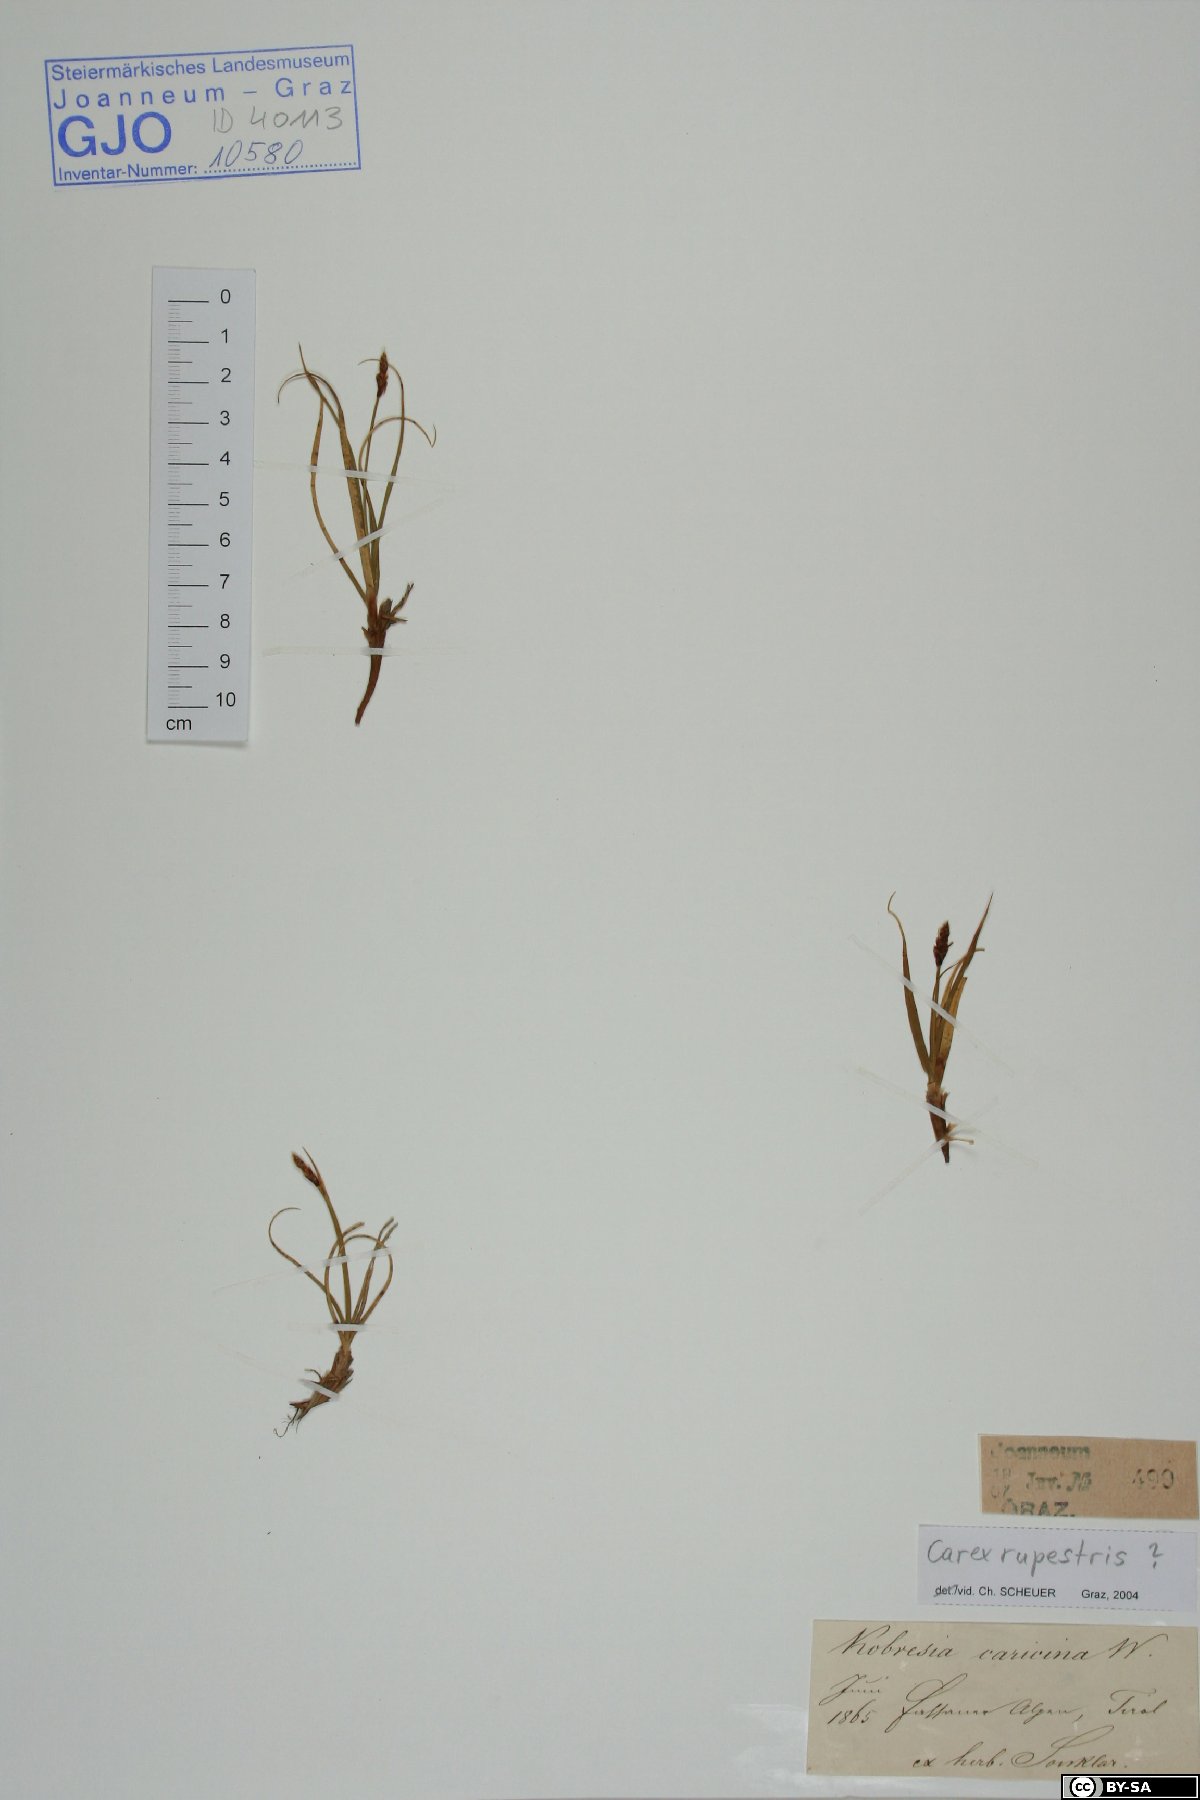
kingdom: Plantae
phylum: Tracheophyta
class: Liliopsida
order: Poales
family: Cyperaceae
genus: Carex
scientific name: Carex rupestris
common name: Rock sedge
